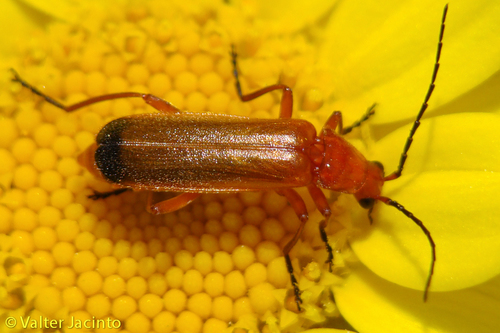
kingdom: Animalia
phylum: Arthropoda
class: Insecta
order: Coleoptera
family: Cantharidae
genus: Rhagonycha
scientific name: Rhagonycha fulva
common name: Common red soldier beetle
